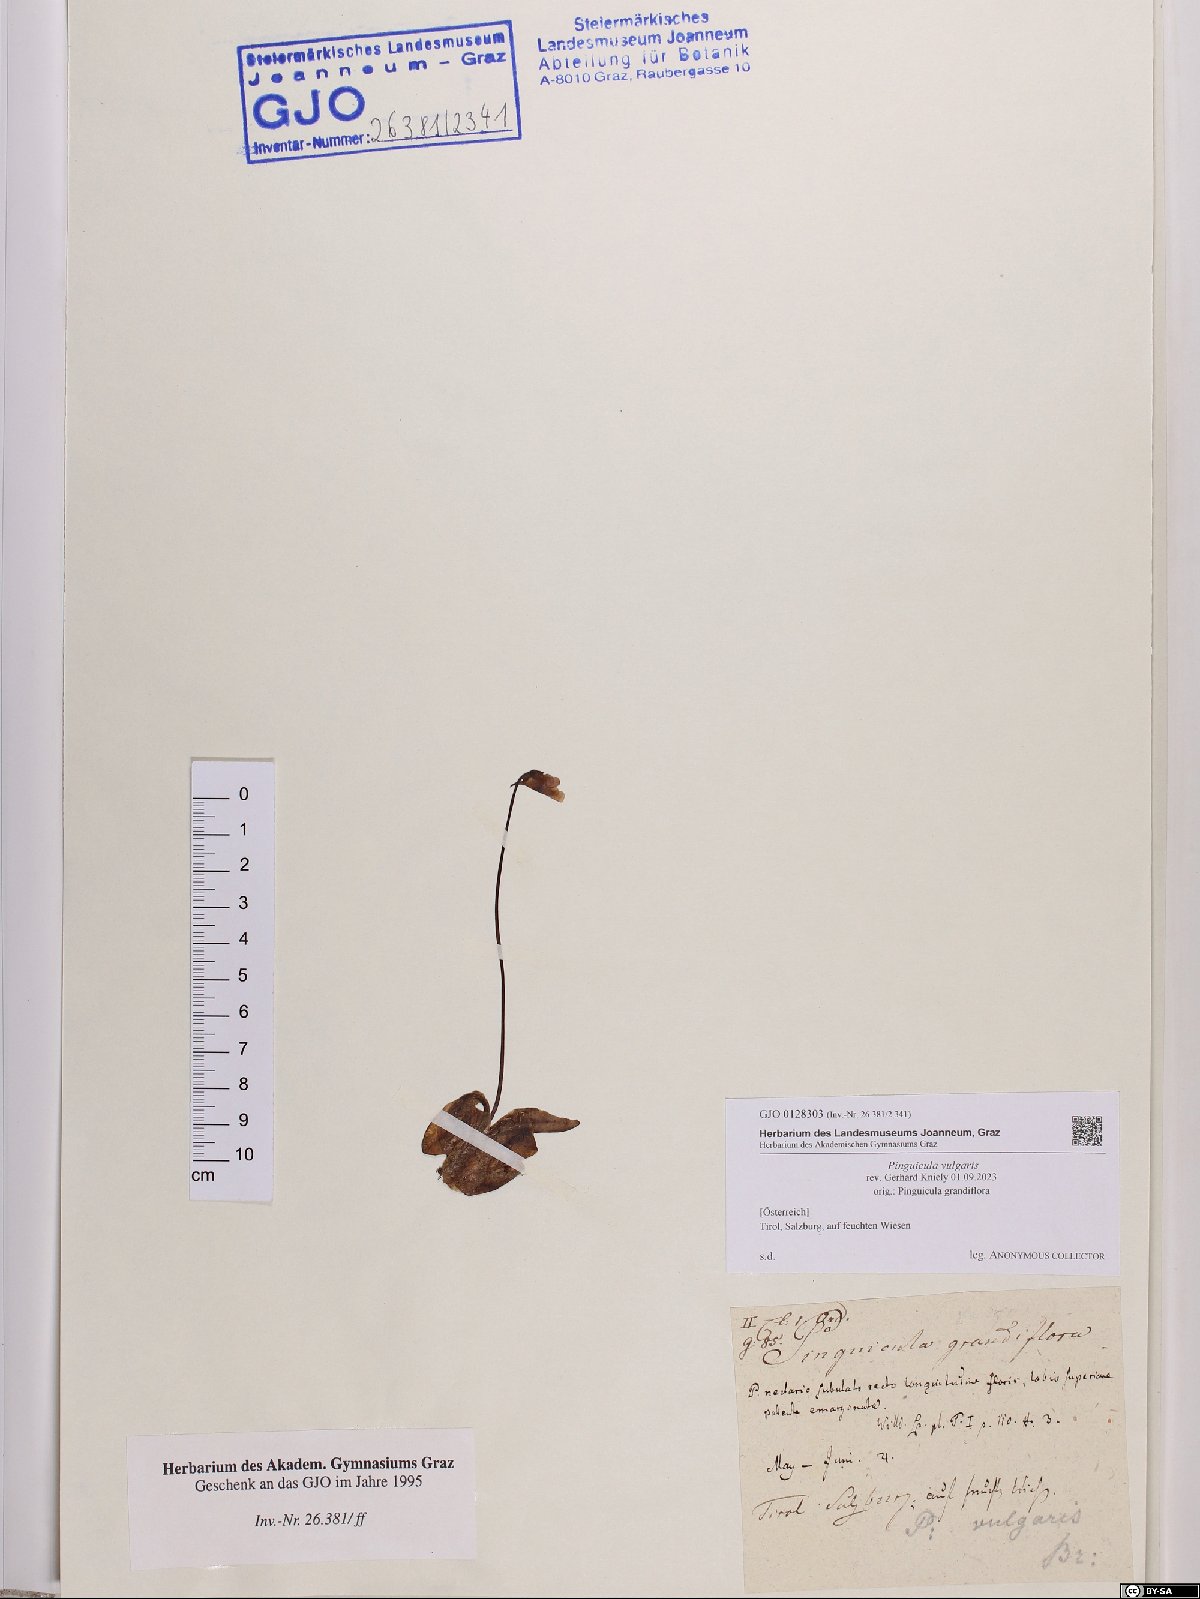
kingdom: Plantae
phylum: Tracheophyta
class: Magnoliopsida
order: Lamiales
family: Lentibulariaceae
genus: Pinguicula
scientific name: Pinguicula vulgaris
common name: Common butterwort
